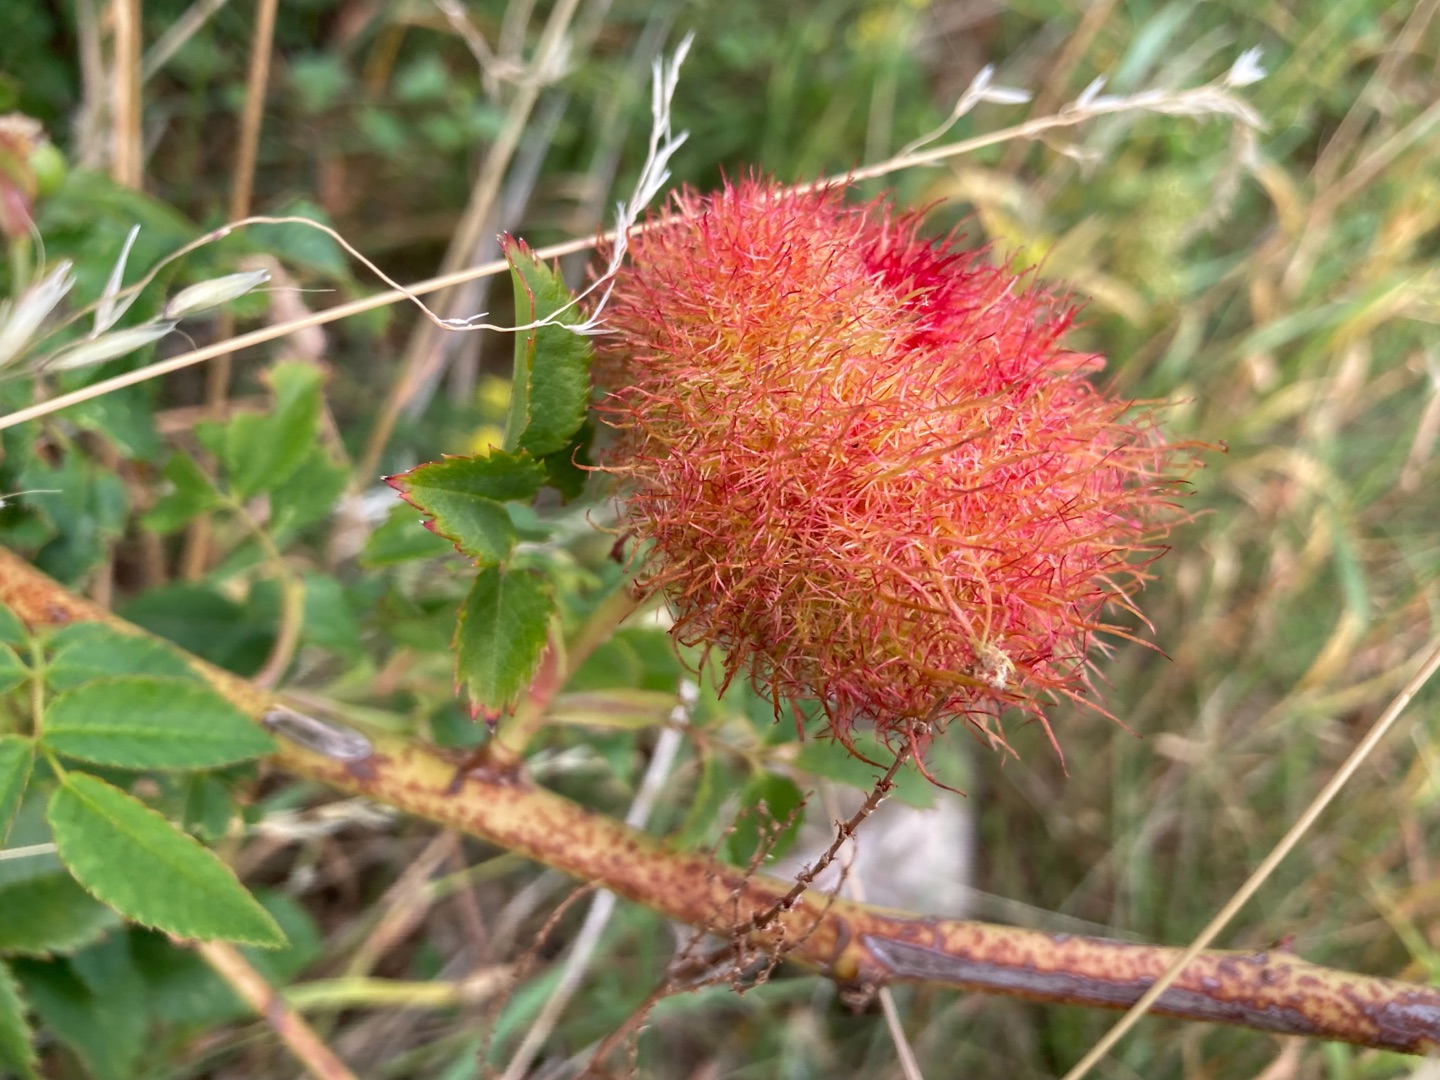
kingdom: Animalia
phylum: Arthropoda
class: Insecta
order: Hymenoptera
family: Cynipidae
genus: Diplolepis
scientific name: Diplolepis rosae
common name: Bedeguargalhveps
